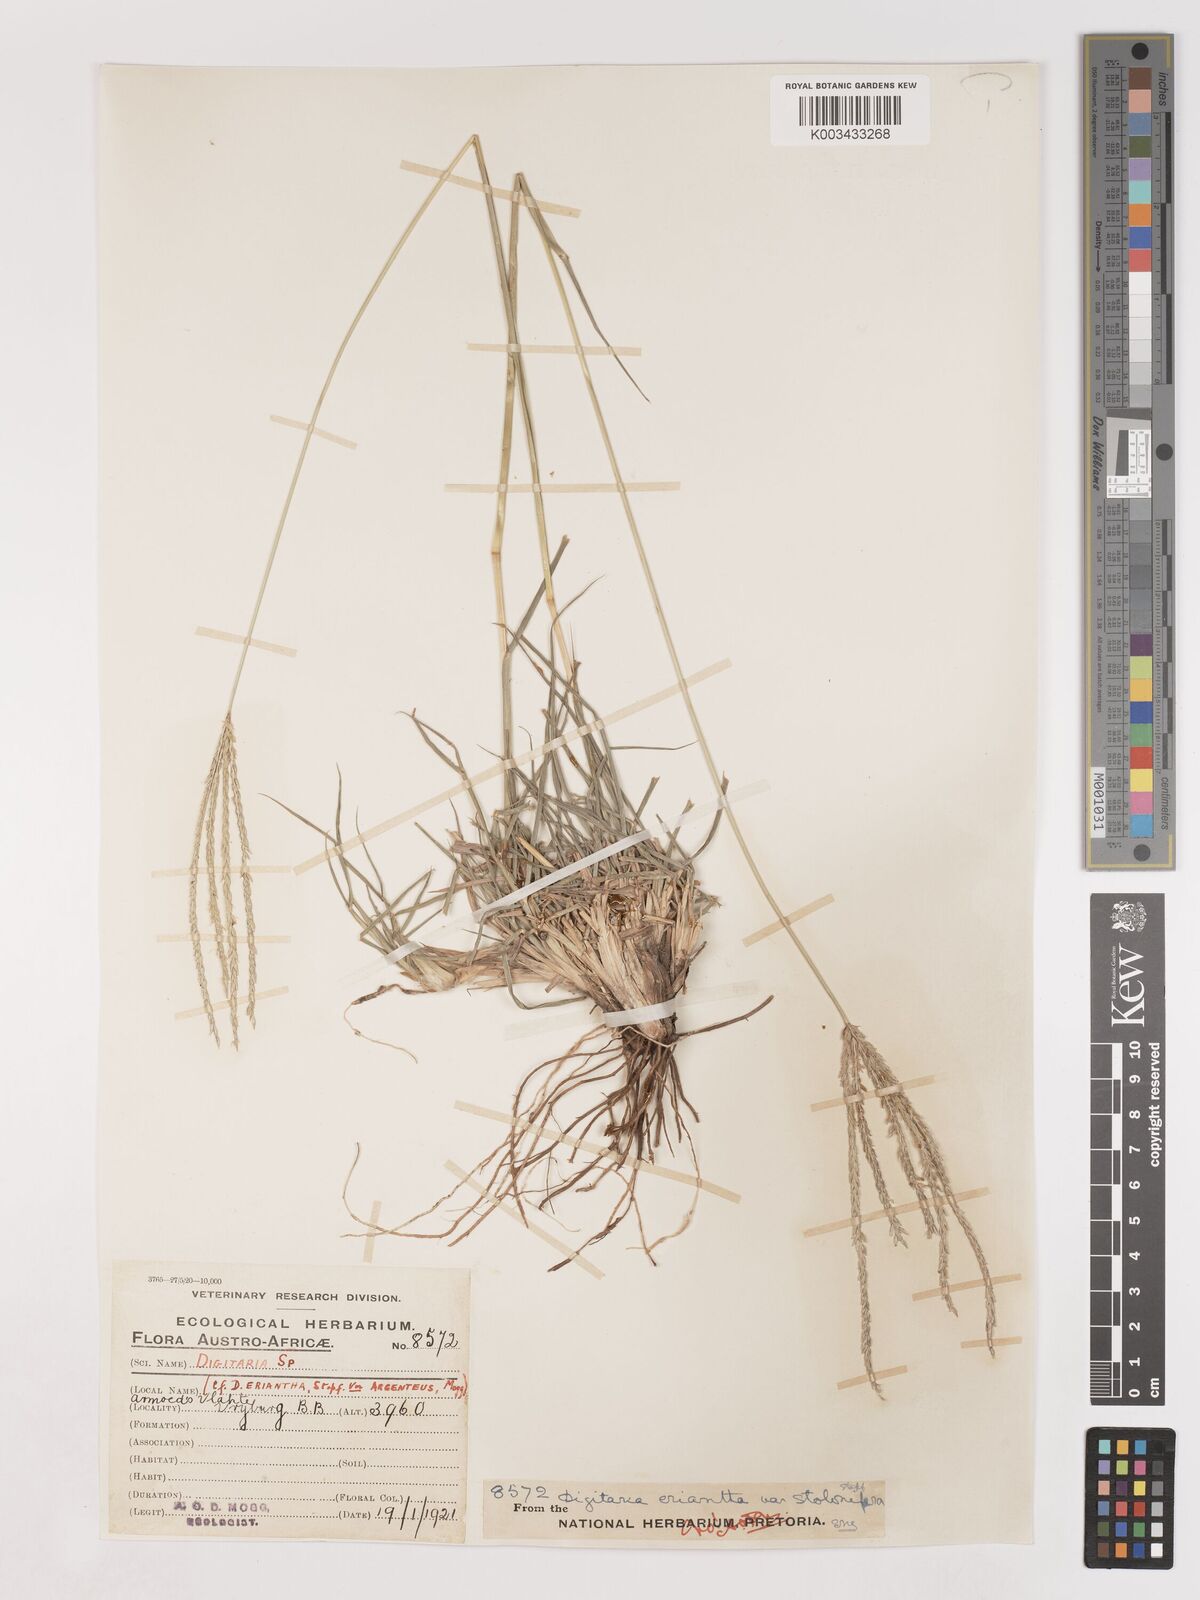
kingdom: Plantae
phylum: Tracheophyta
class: Liliopsida
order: Poales
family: Poaceae
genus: Digitaria
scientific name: Digitaria eriantha
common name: Digitgrass
